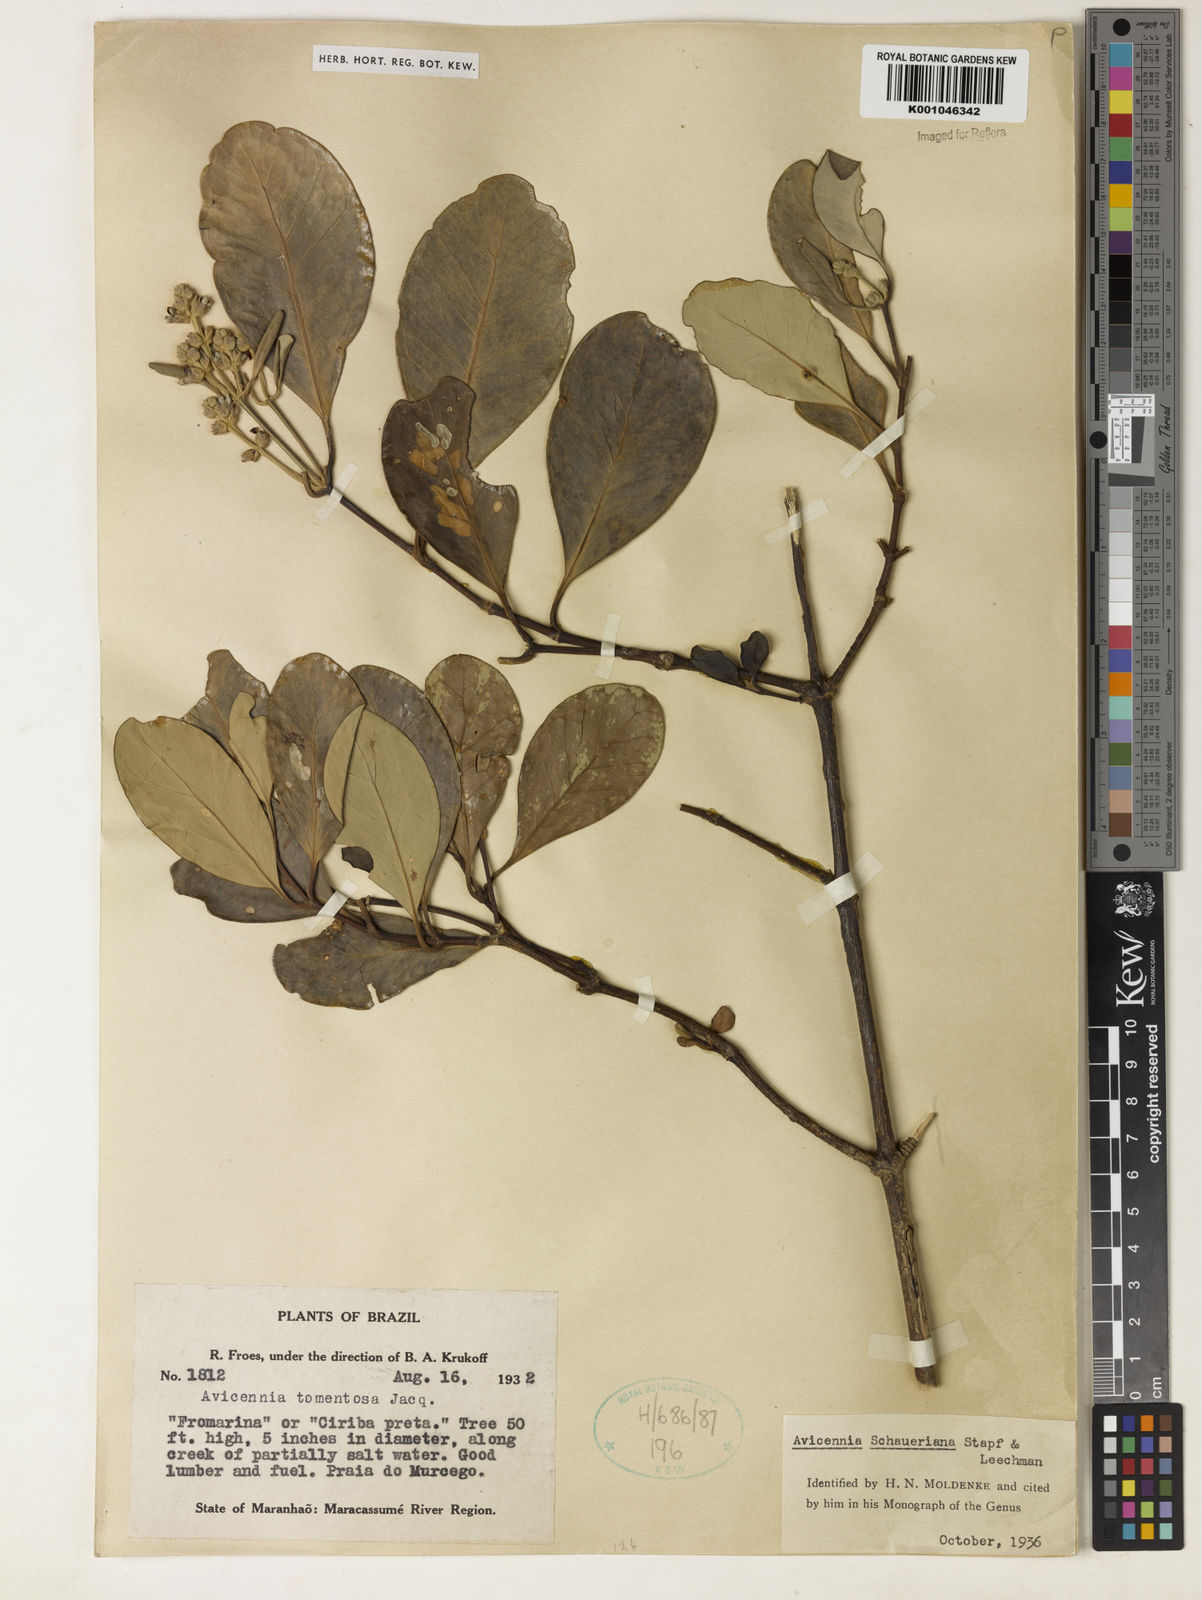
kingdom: Plantae
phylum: Tracheophyta
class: Magnoliopsida
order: Lamiales
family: Acanthaceae
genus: Avicennia
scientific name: Avicennia schaueriana
